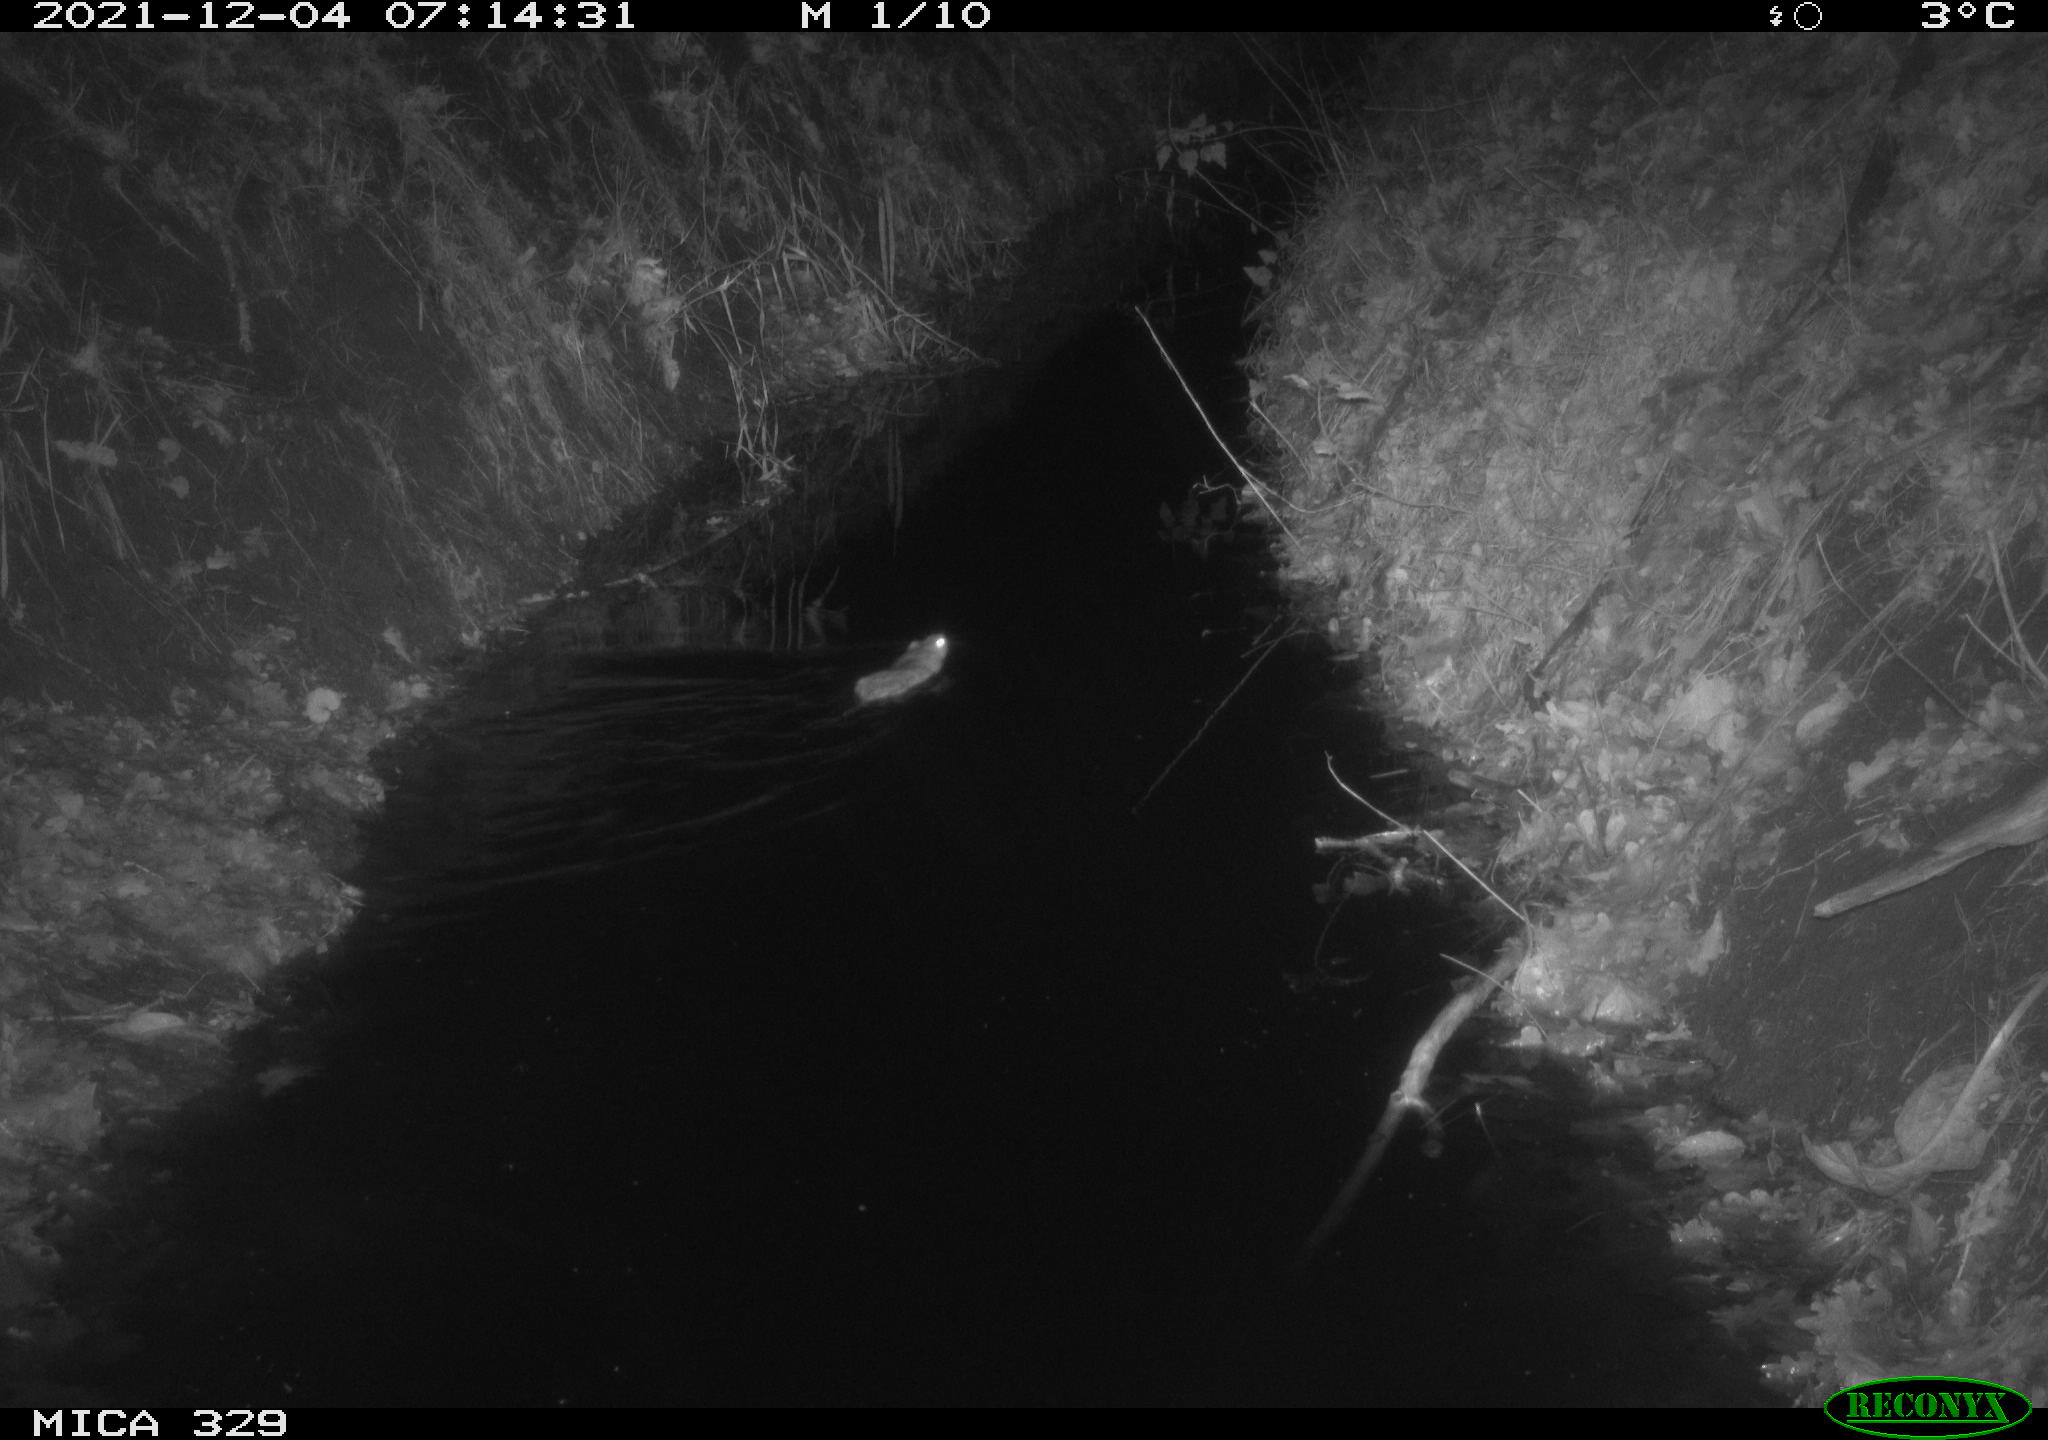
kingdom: Animalia
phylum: Chordata
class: Mammalia
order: Rodentia
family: Muridae
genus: Rattus
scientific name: Rattus norvegicus
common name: Brown rat
